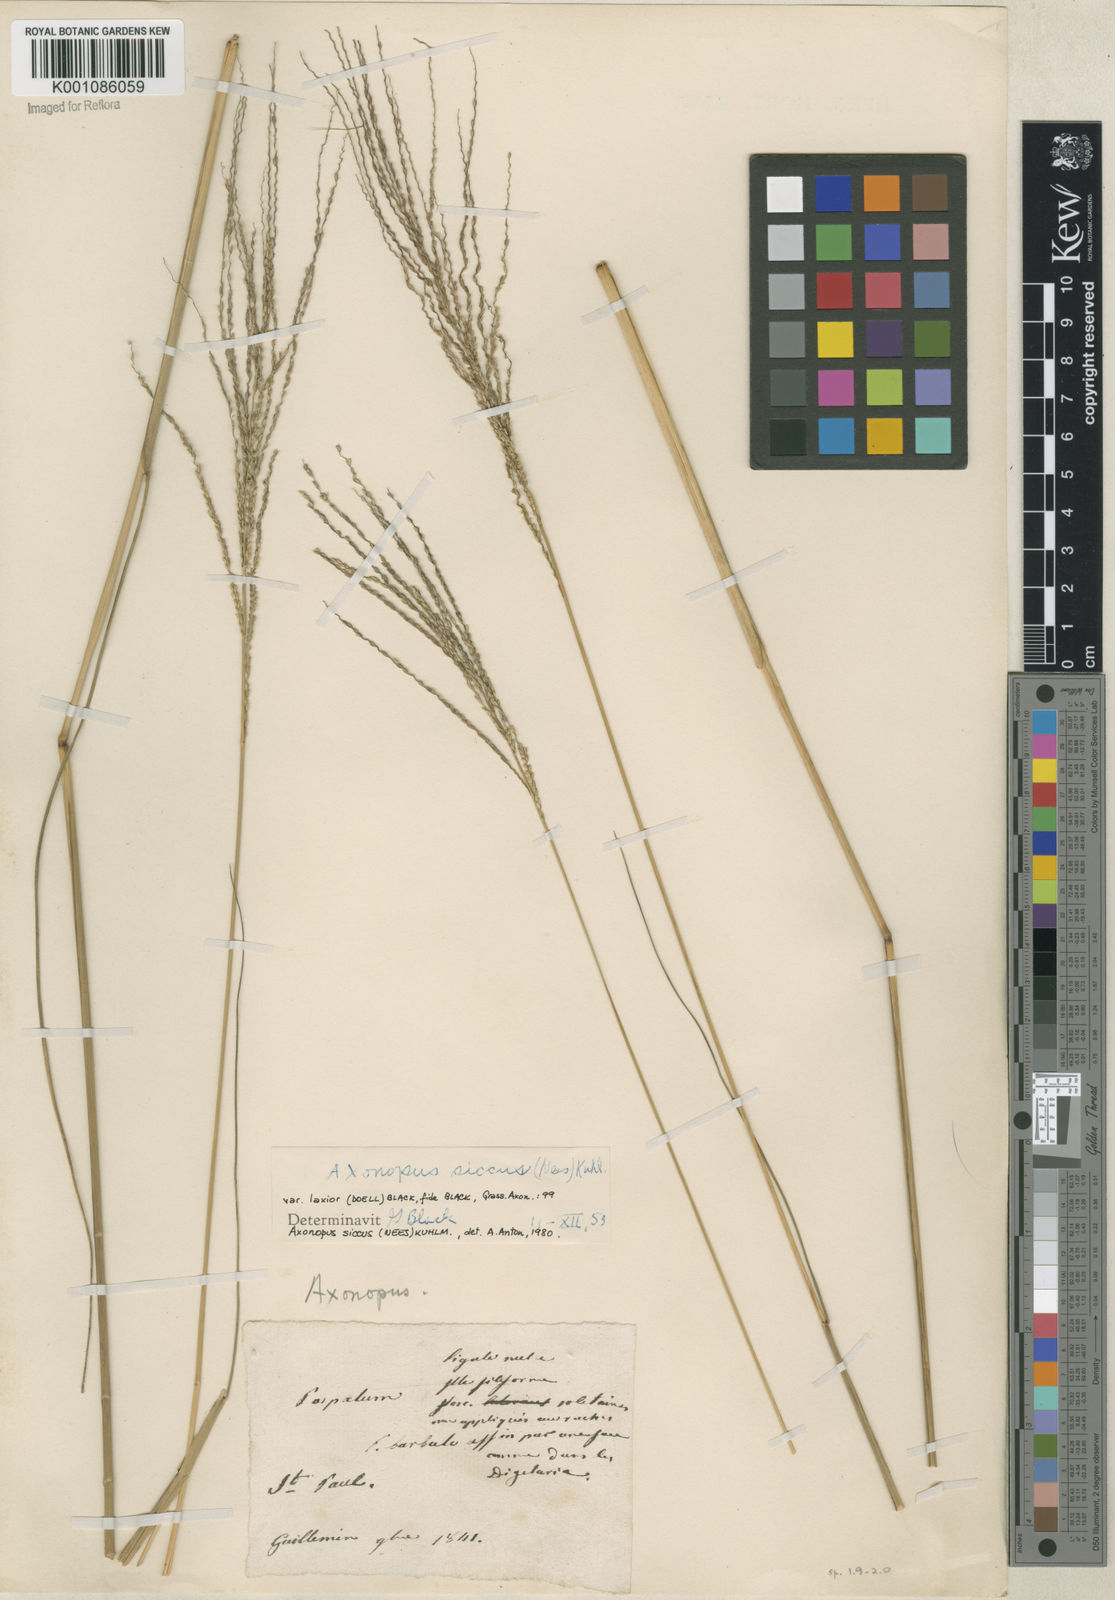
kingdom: Plantae
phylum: Tracheophyta
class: Liliopsida
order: Poales
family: Poaceae
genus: Axonopus
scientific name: Axonopus siccus
